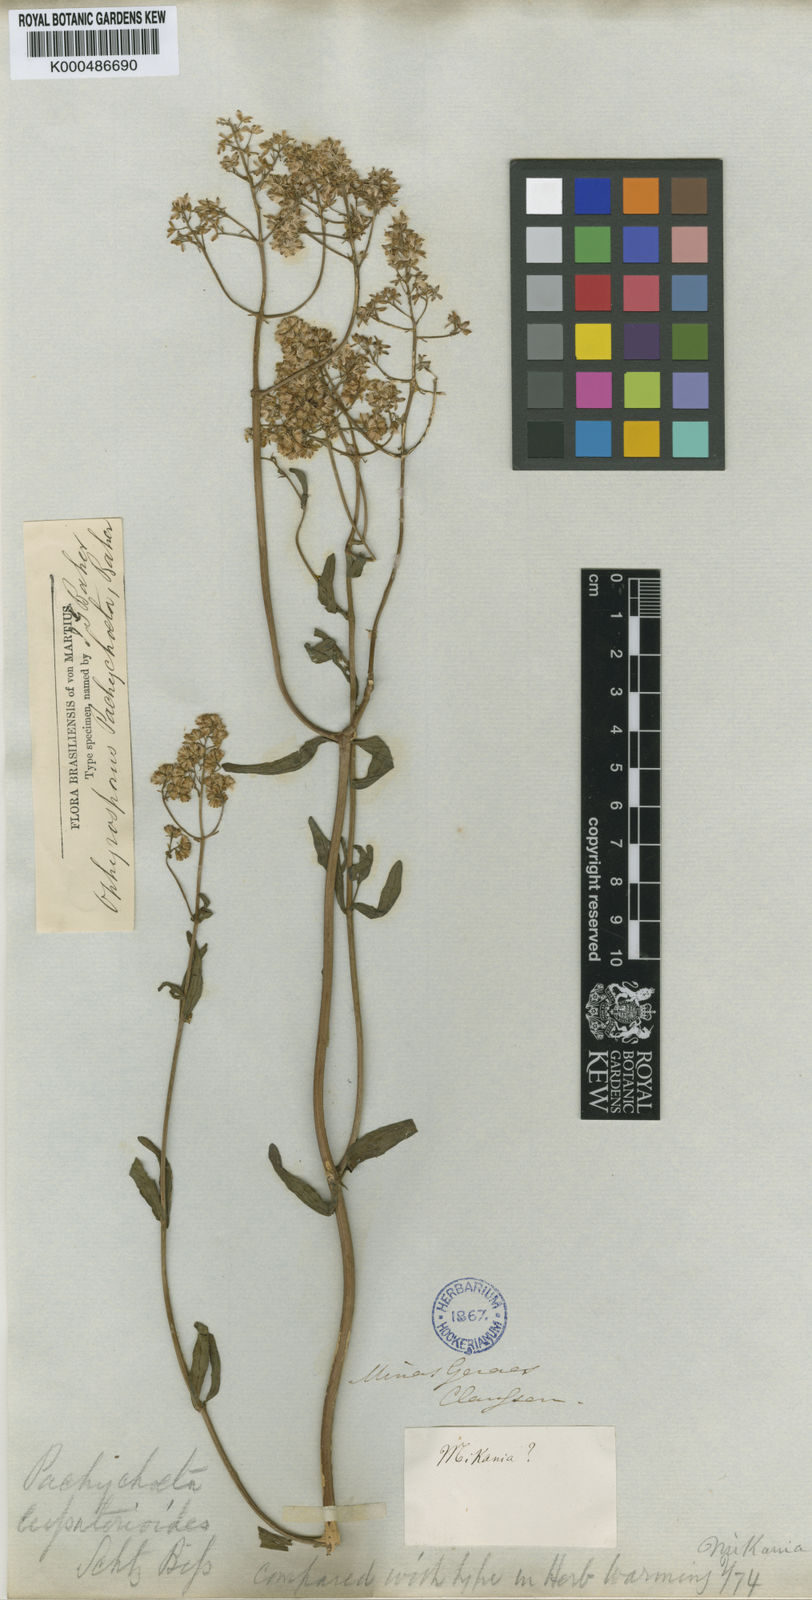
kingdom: Plantae
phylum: Tracheophyta
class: Magnoliopsida
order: Asterales
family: Asteraceae
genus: Mikania
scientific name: Mikania pachychaeta
